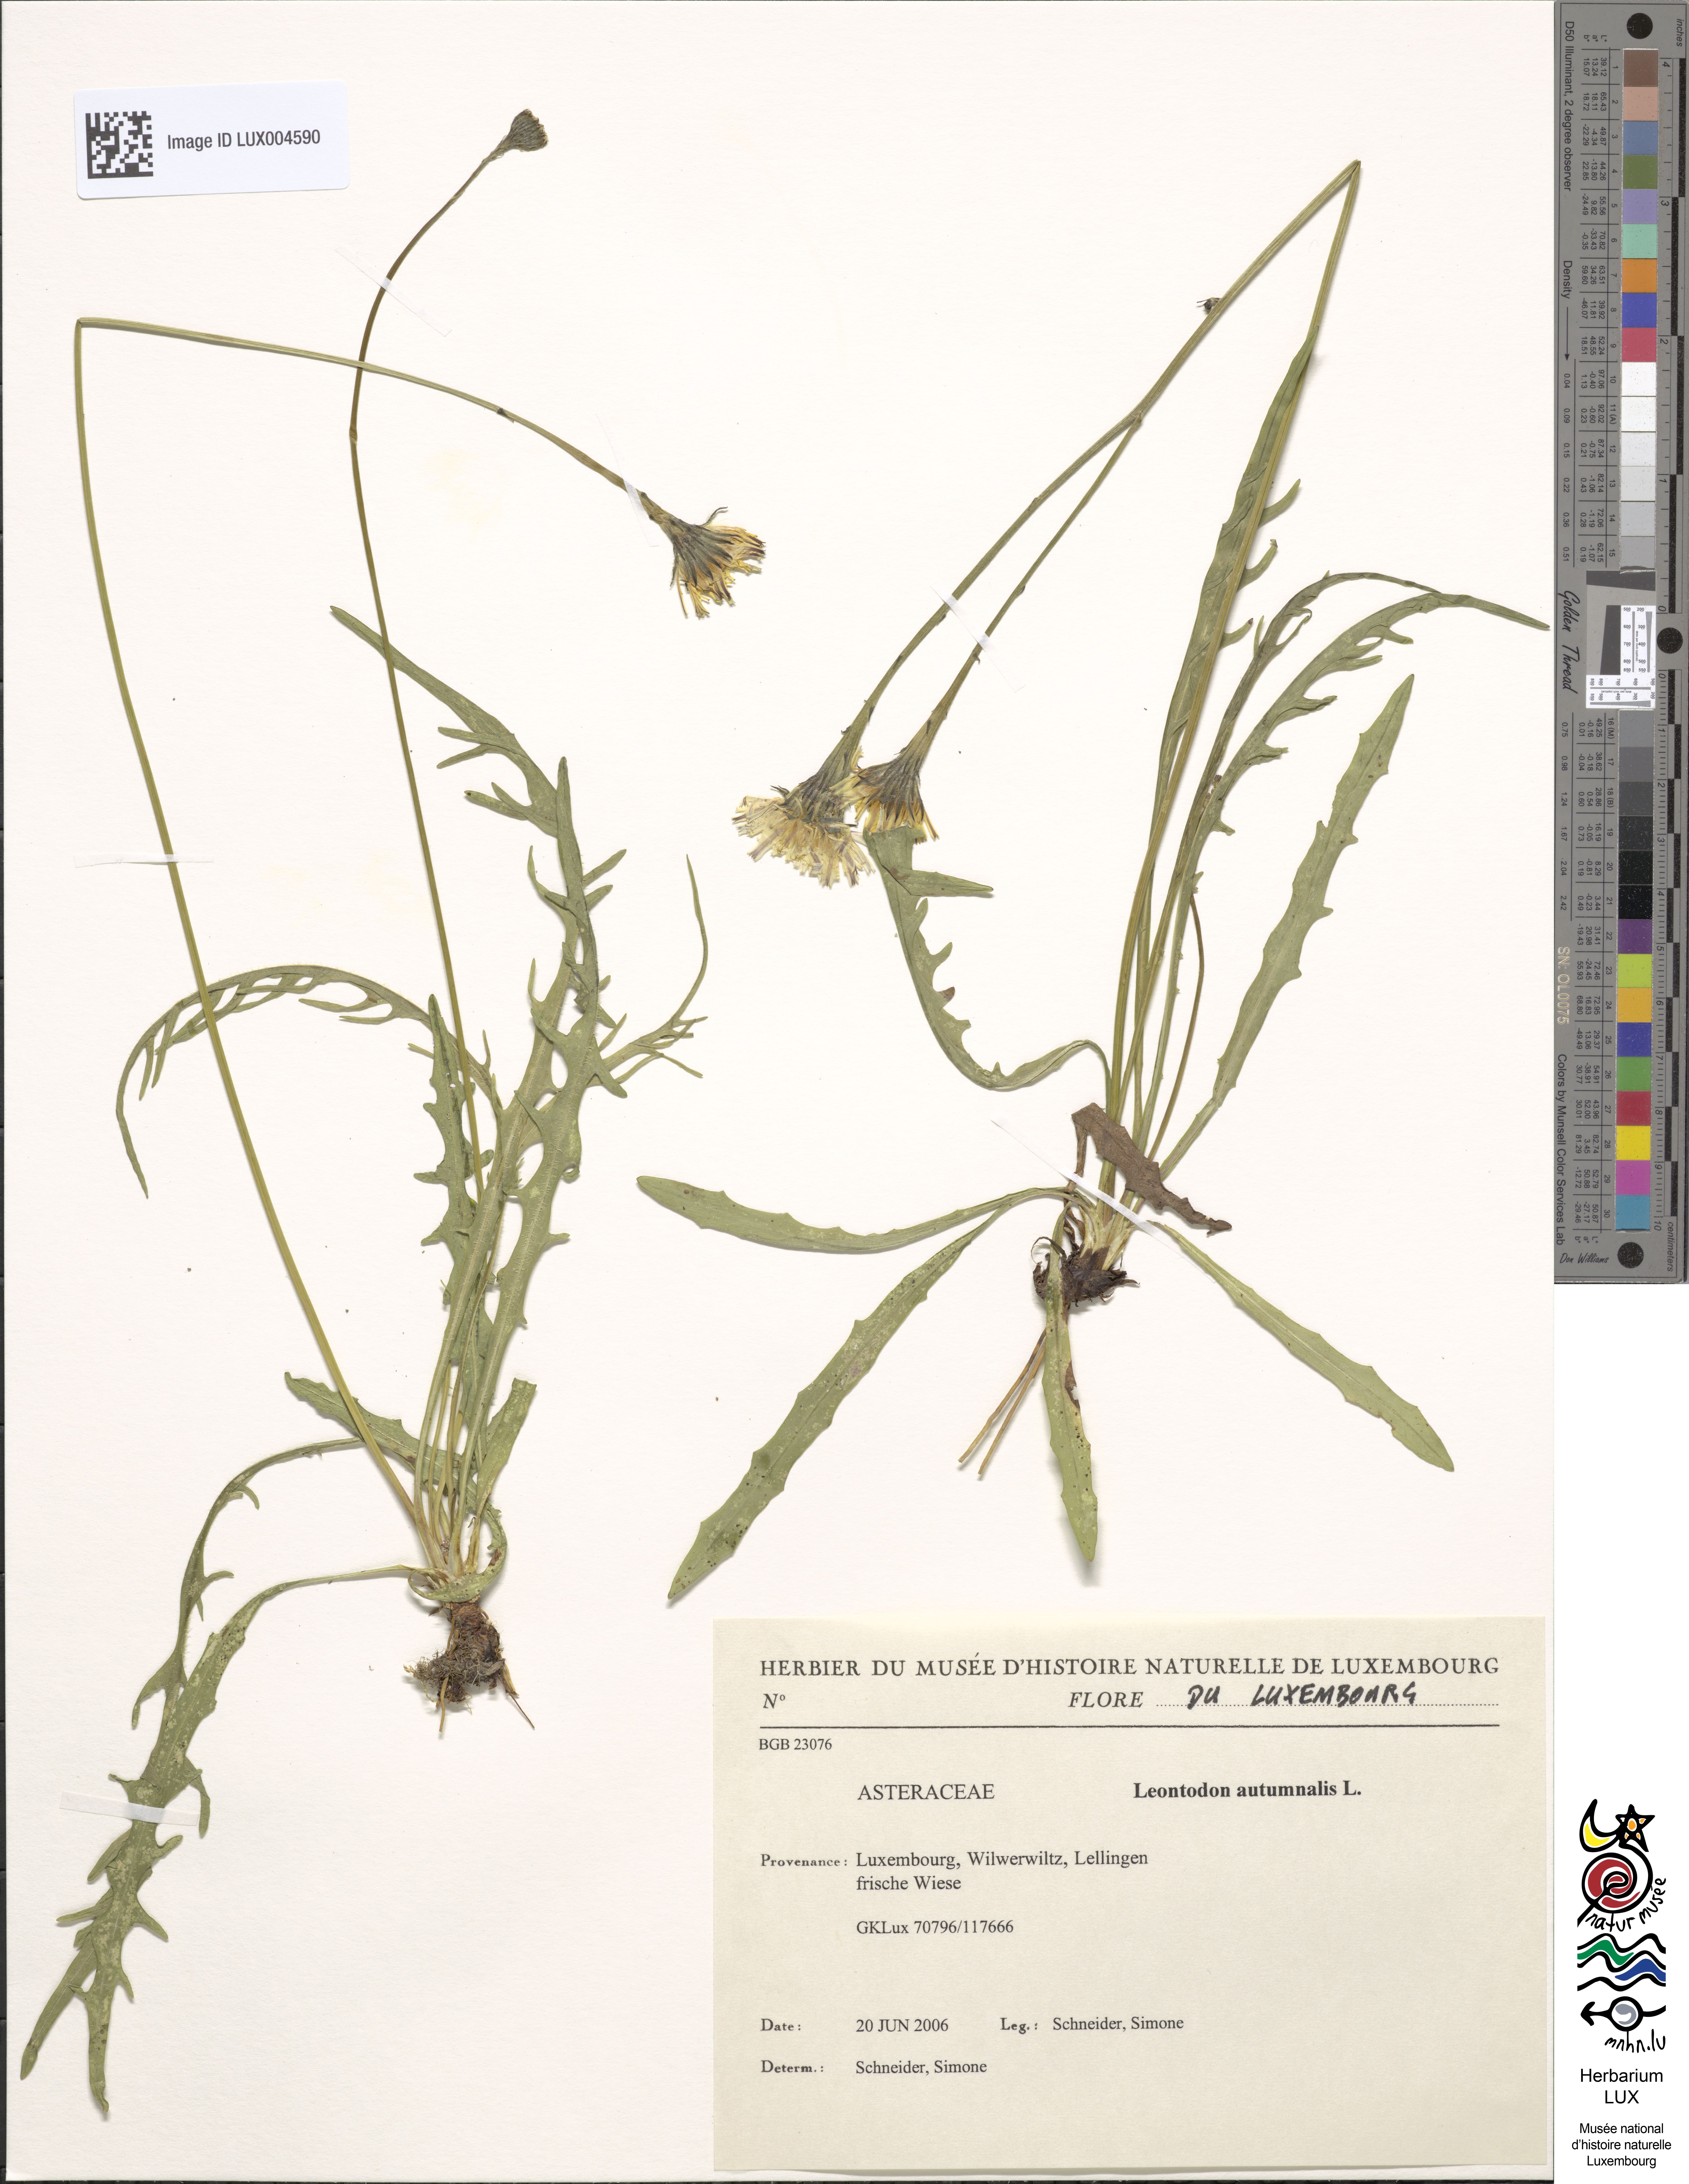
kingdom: Plantae
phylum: Tracheophyta
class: Magnoliopsida
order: Asterales
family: Asteraceae
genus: Scorzoneroides
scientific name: Scorzoneroides autumnalis
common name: Autumn hawkbit
